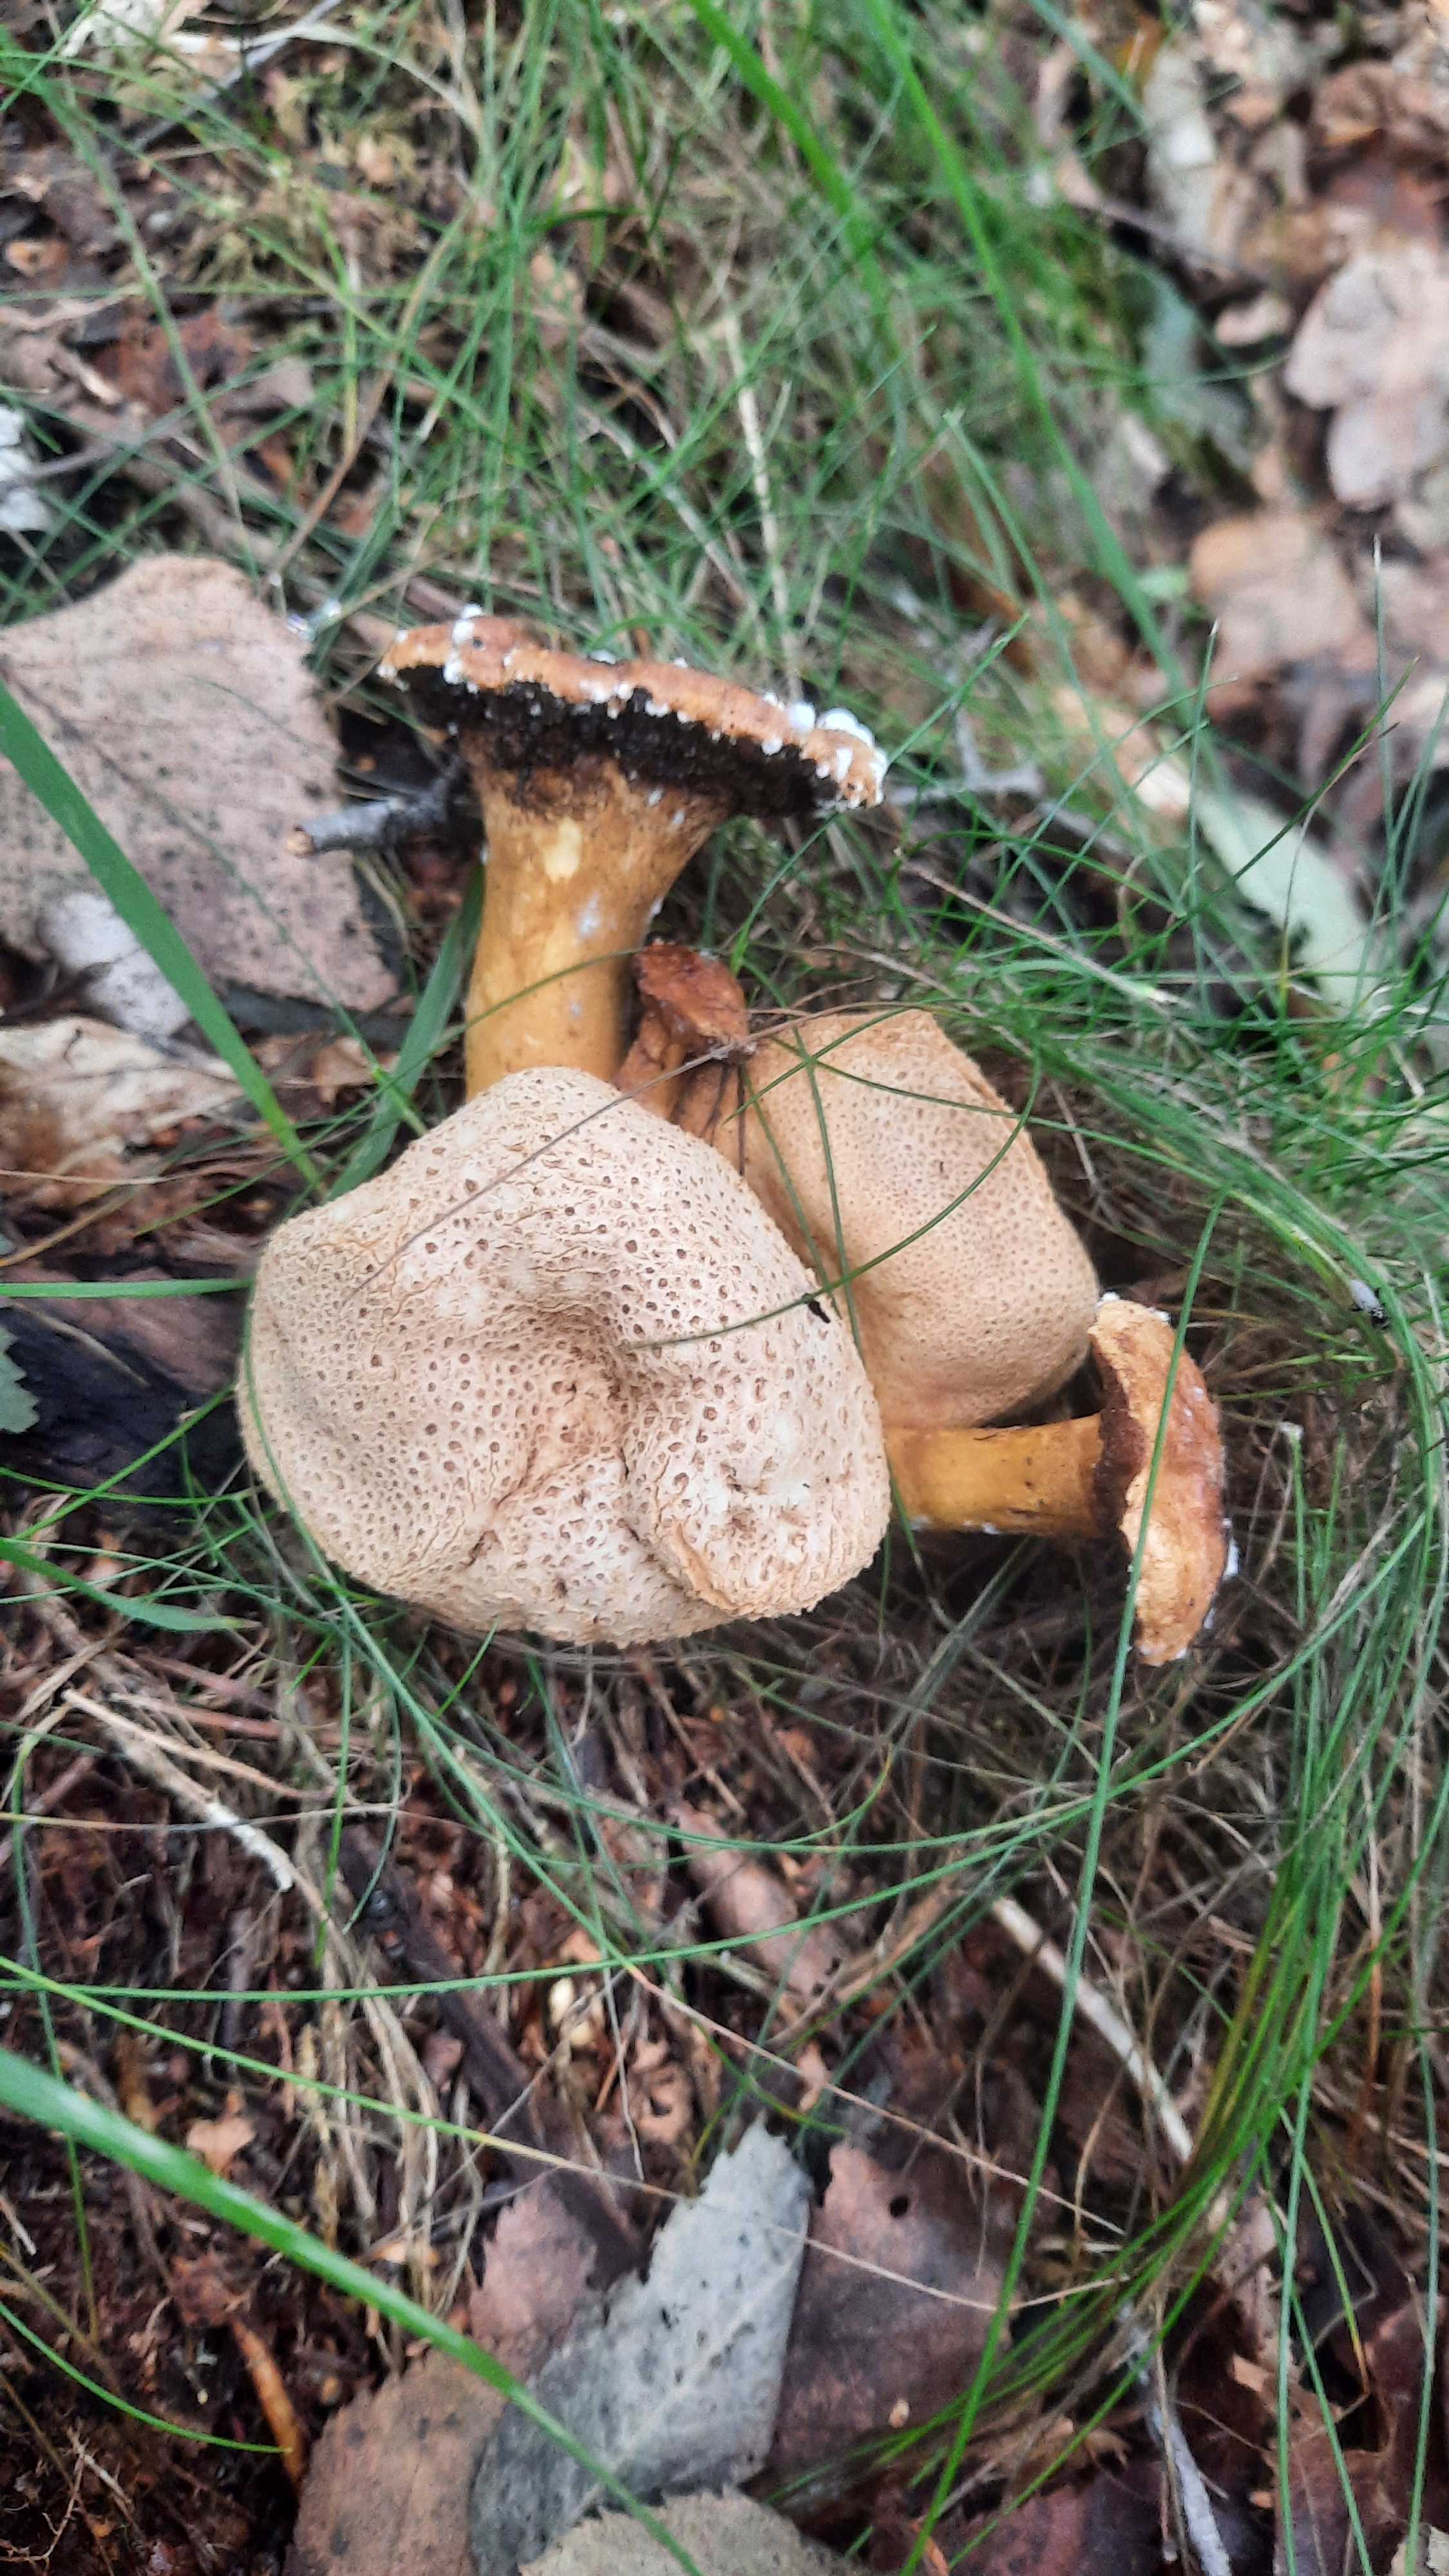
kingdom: Fungi
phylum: Basidiomycota
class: Agaricomycetes
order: Boletales
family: Boletaceae
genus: Pseudoboletus
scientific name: Pseudoboletus parasiticus
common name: snyltende rørhat
